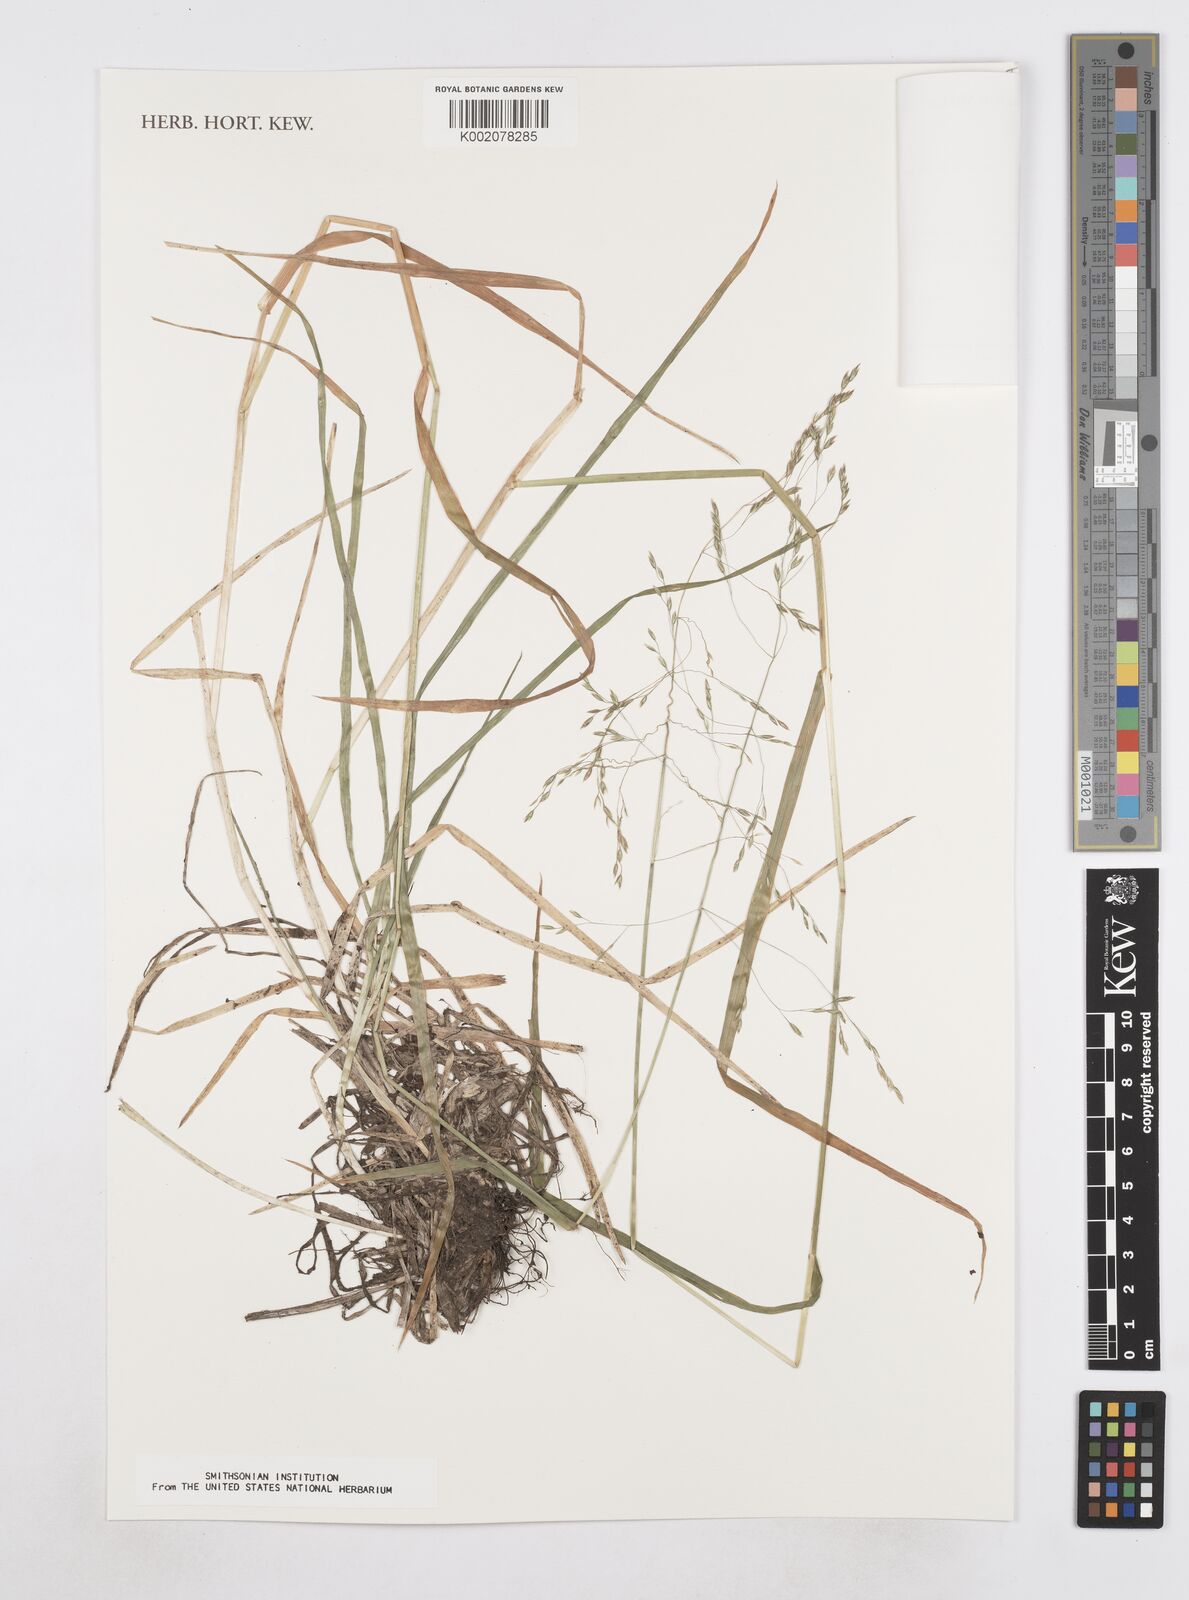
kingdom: Plantae
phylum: Tracheophyta
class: Liliopsida
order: Poales
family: Poaceae
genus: Poa
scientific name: Poa matris-occidentalis
